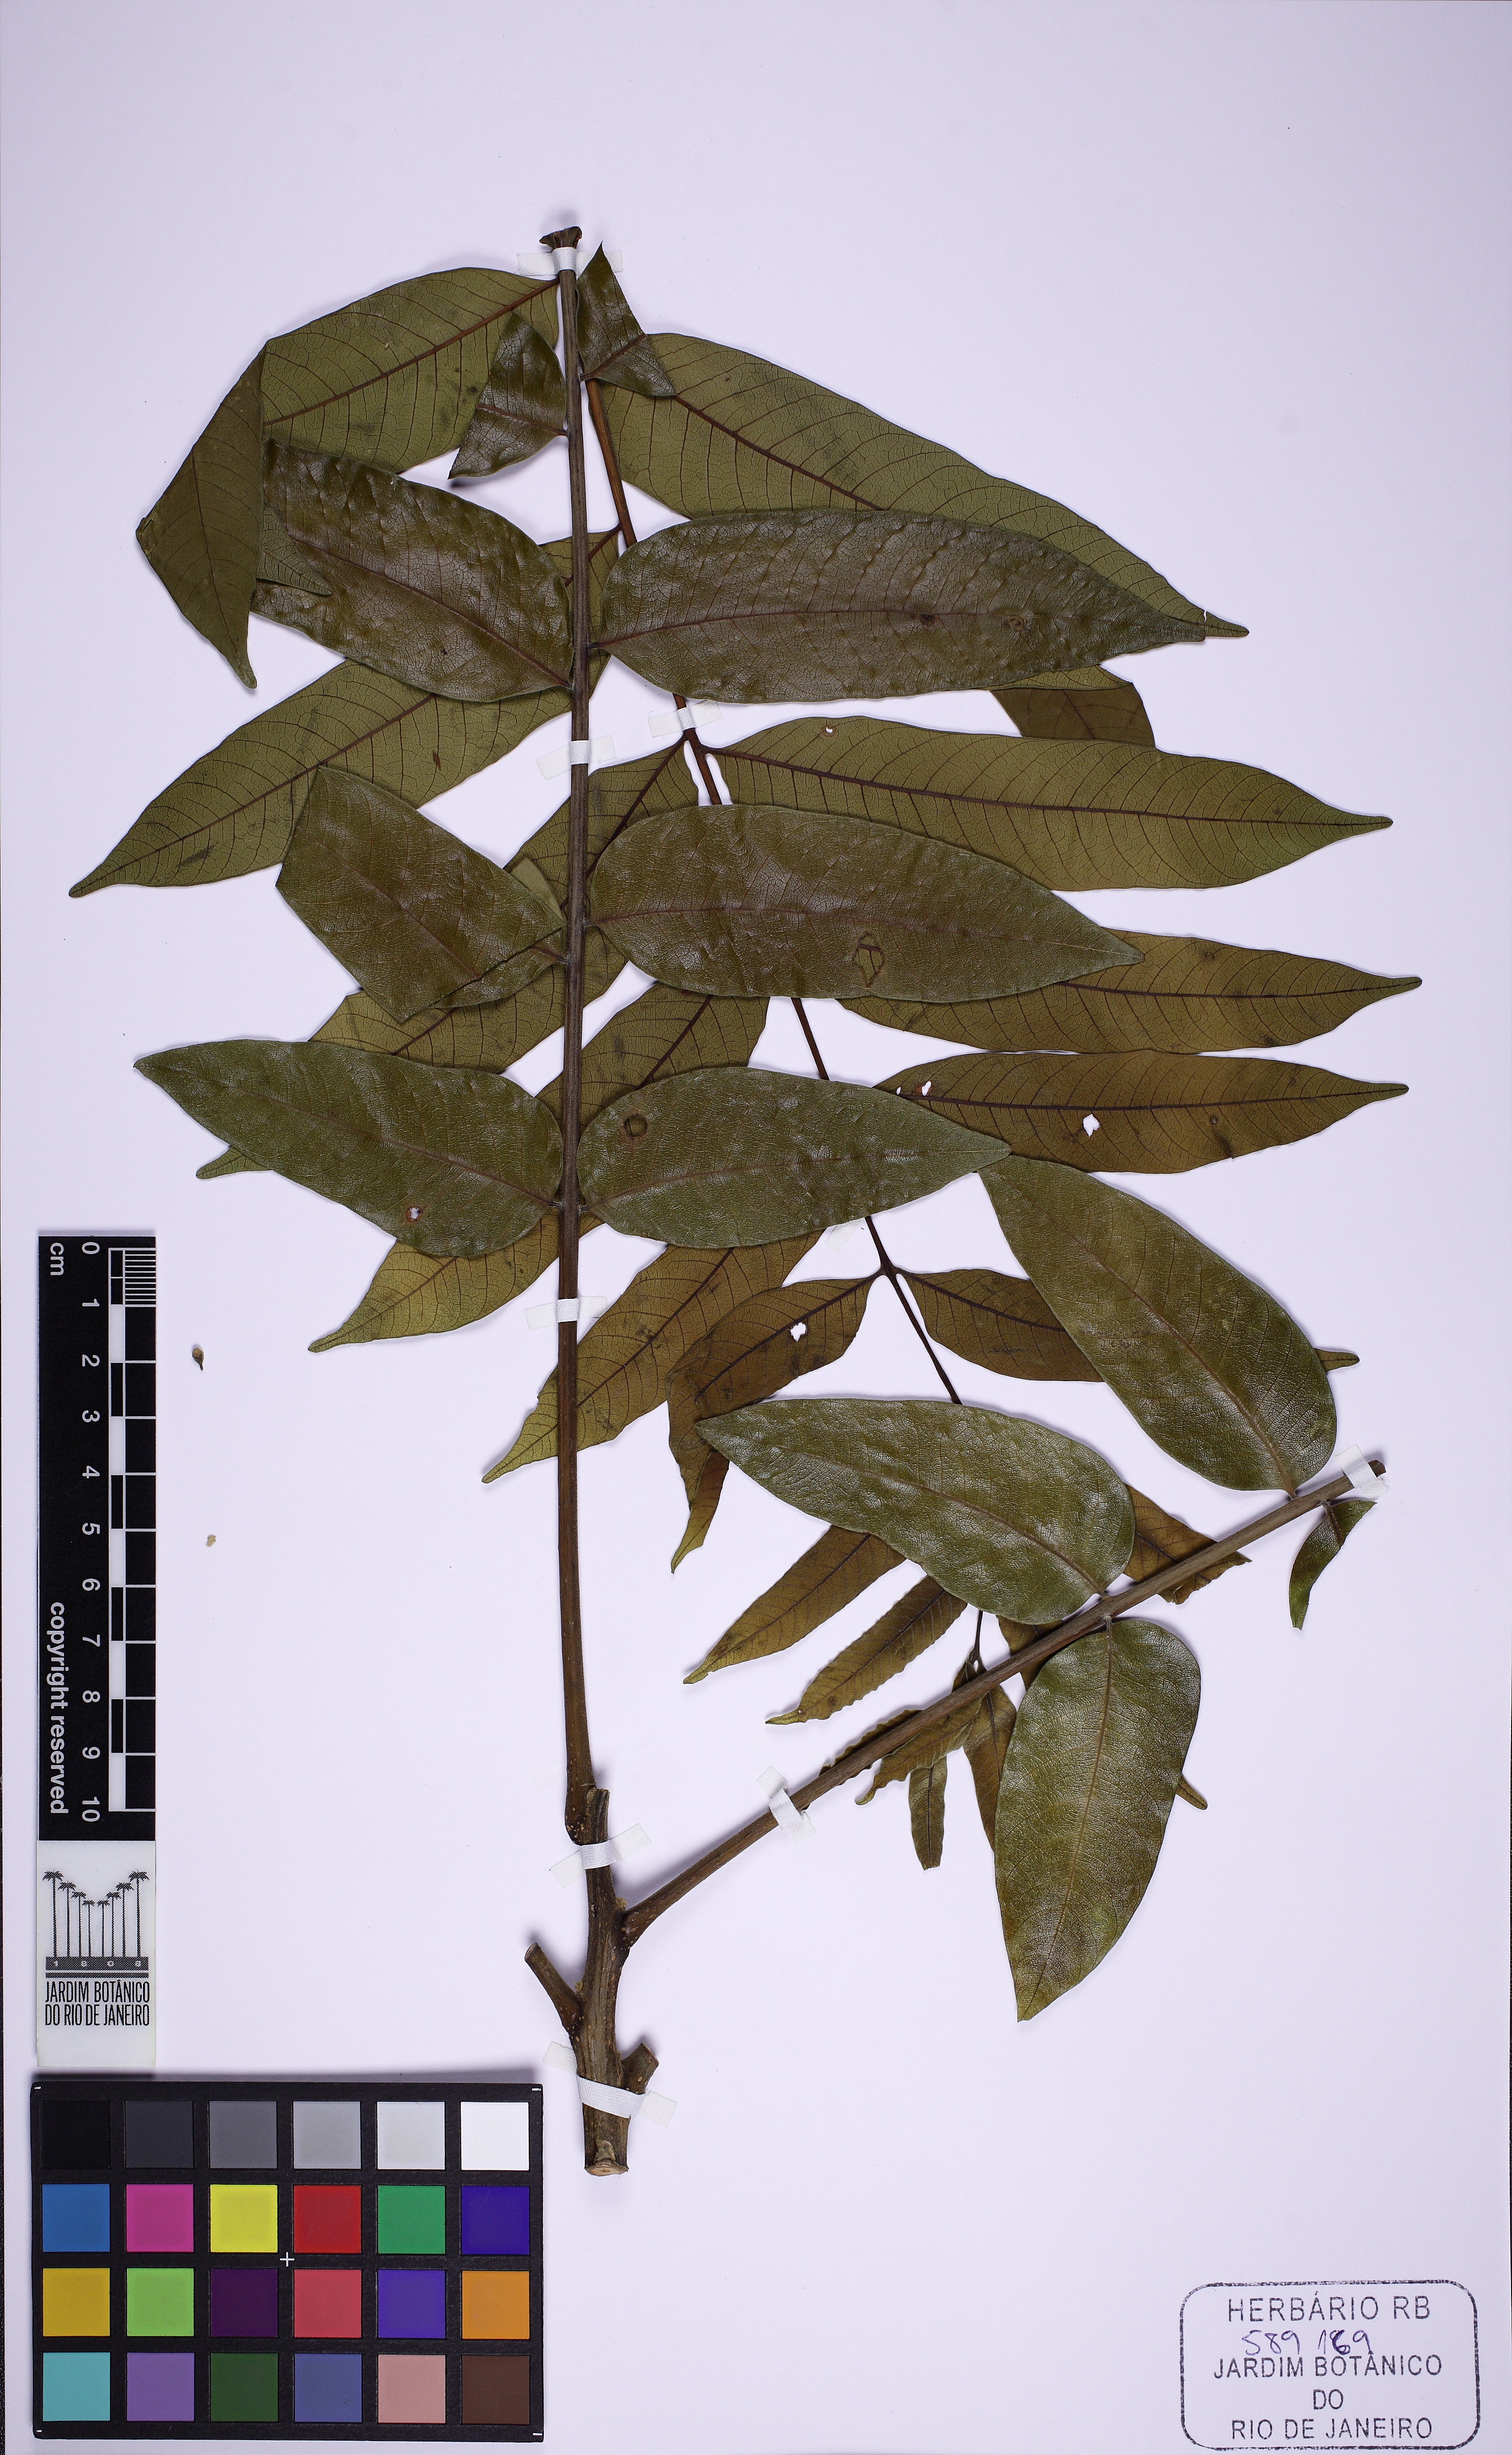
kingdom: Plantae
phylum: Tracheophyta
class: Magnoliopsida
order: Sapindales
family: Meliaceae
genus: Cedrela
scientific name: Cedrela
